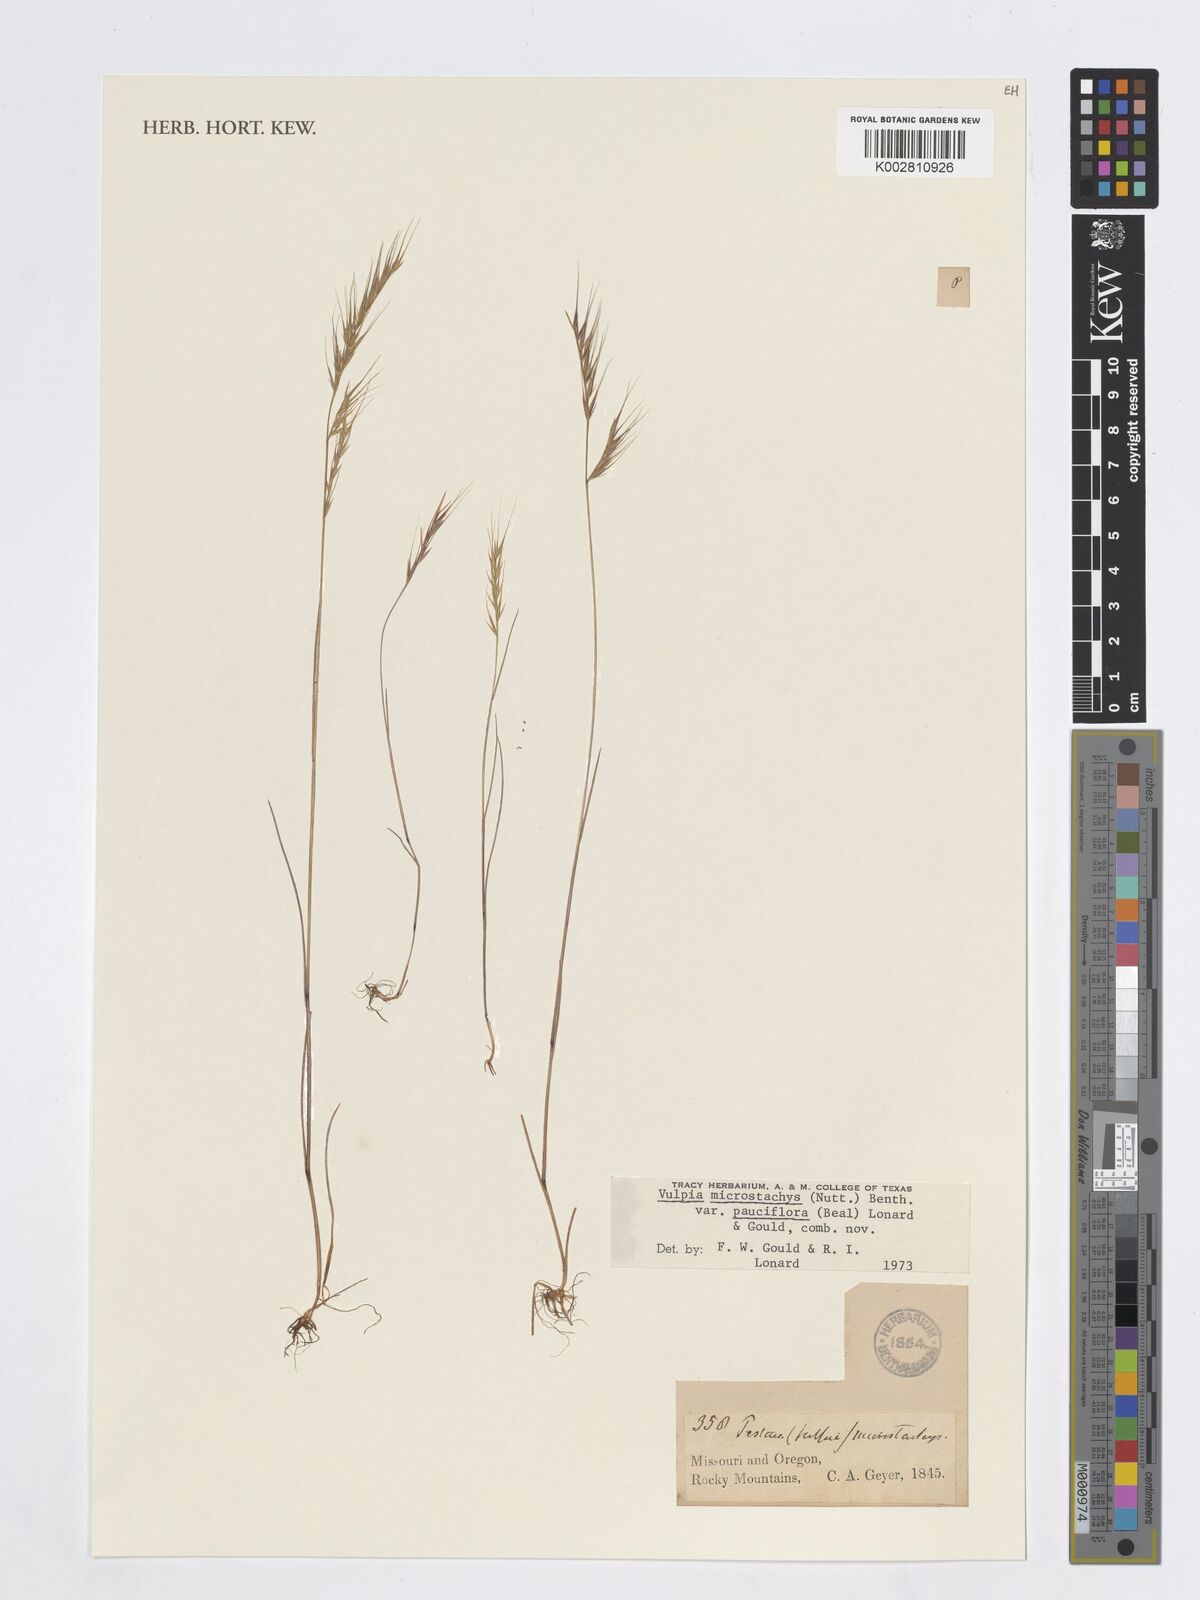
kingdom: Plantae
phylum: Tracheophyta
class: Liliopsida
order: Poales
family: Poaceae
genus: Festuca
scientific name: Festuca microstachys
